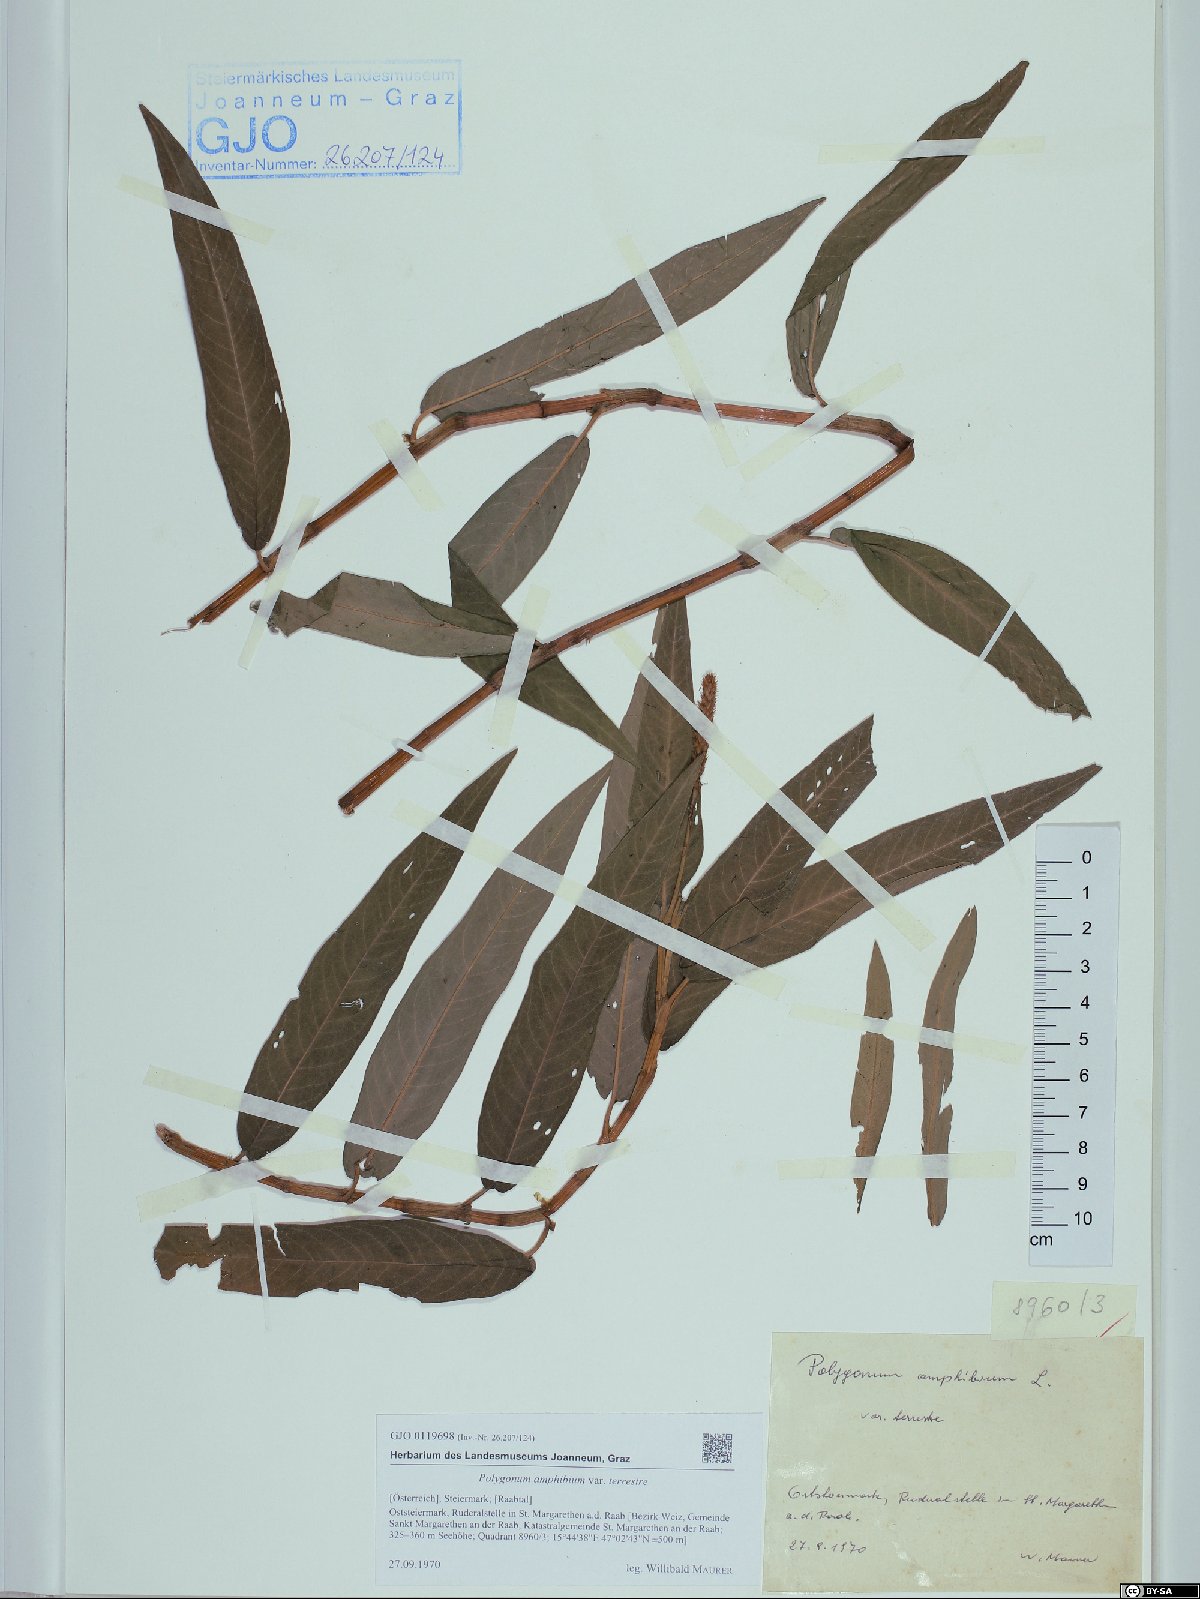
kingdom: Plantae
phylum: Tracheophyta
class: Magnoliopsida
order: Caryophyllales
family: Polygonaceae
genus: Persicaria
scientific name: Persicaria amphibia
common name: Amphibious bistort
